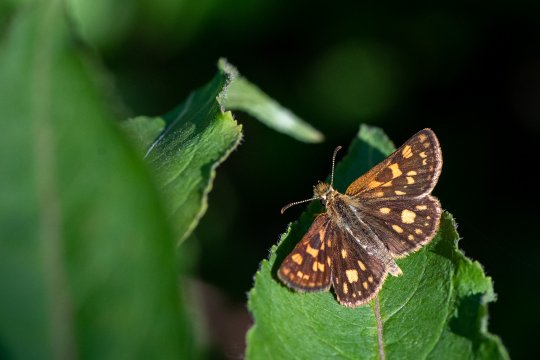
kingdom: Animalia
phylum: Arthropoda
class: Insecta
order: Lepidoptera
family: Hesperiidae
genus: Carterocephalus
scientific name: Carterocephalus mandan
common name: Arctic Skipperling
